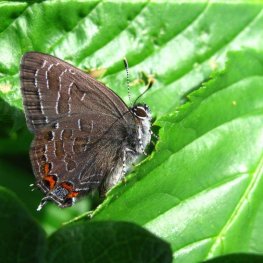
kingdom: Animalia
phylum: Arthropoda
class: Insecta
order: Lepidoptera
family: Lycaenidae
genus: Satyrium
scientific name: Satyrium liparops
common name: Striped Hairstreak
